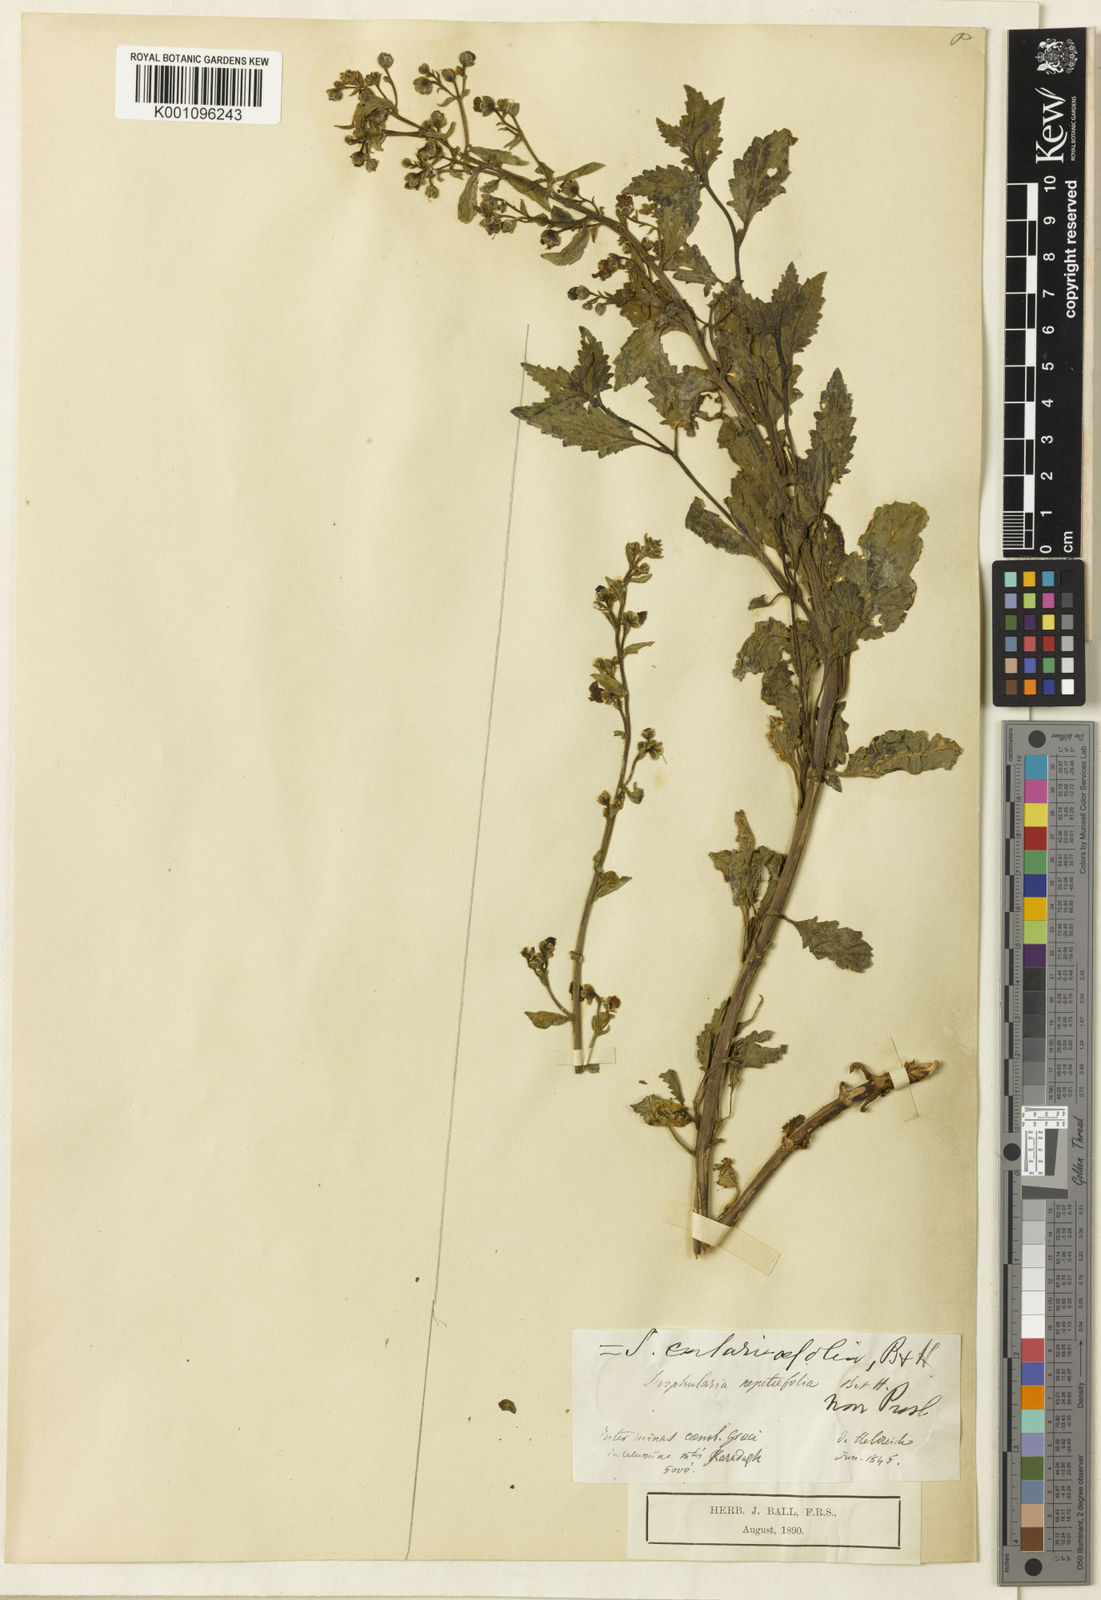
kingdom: Plantae
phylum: Tracheophyta
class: Magnoliopsida
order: Lamiales
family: Scrophulariaceae
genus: Scrophularia
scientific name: Scrophularia catariifolia
